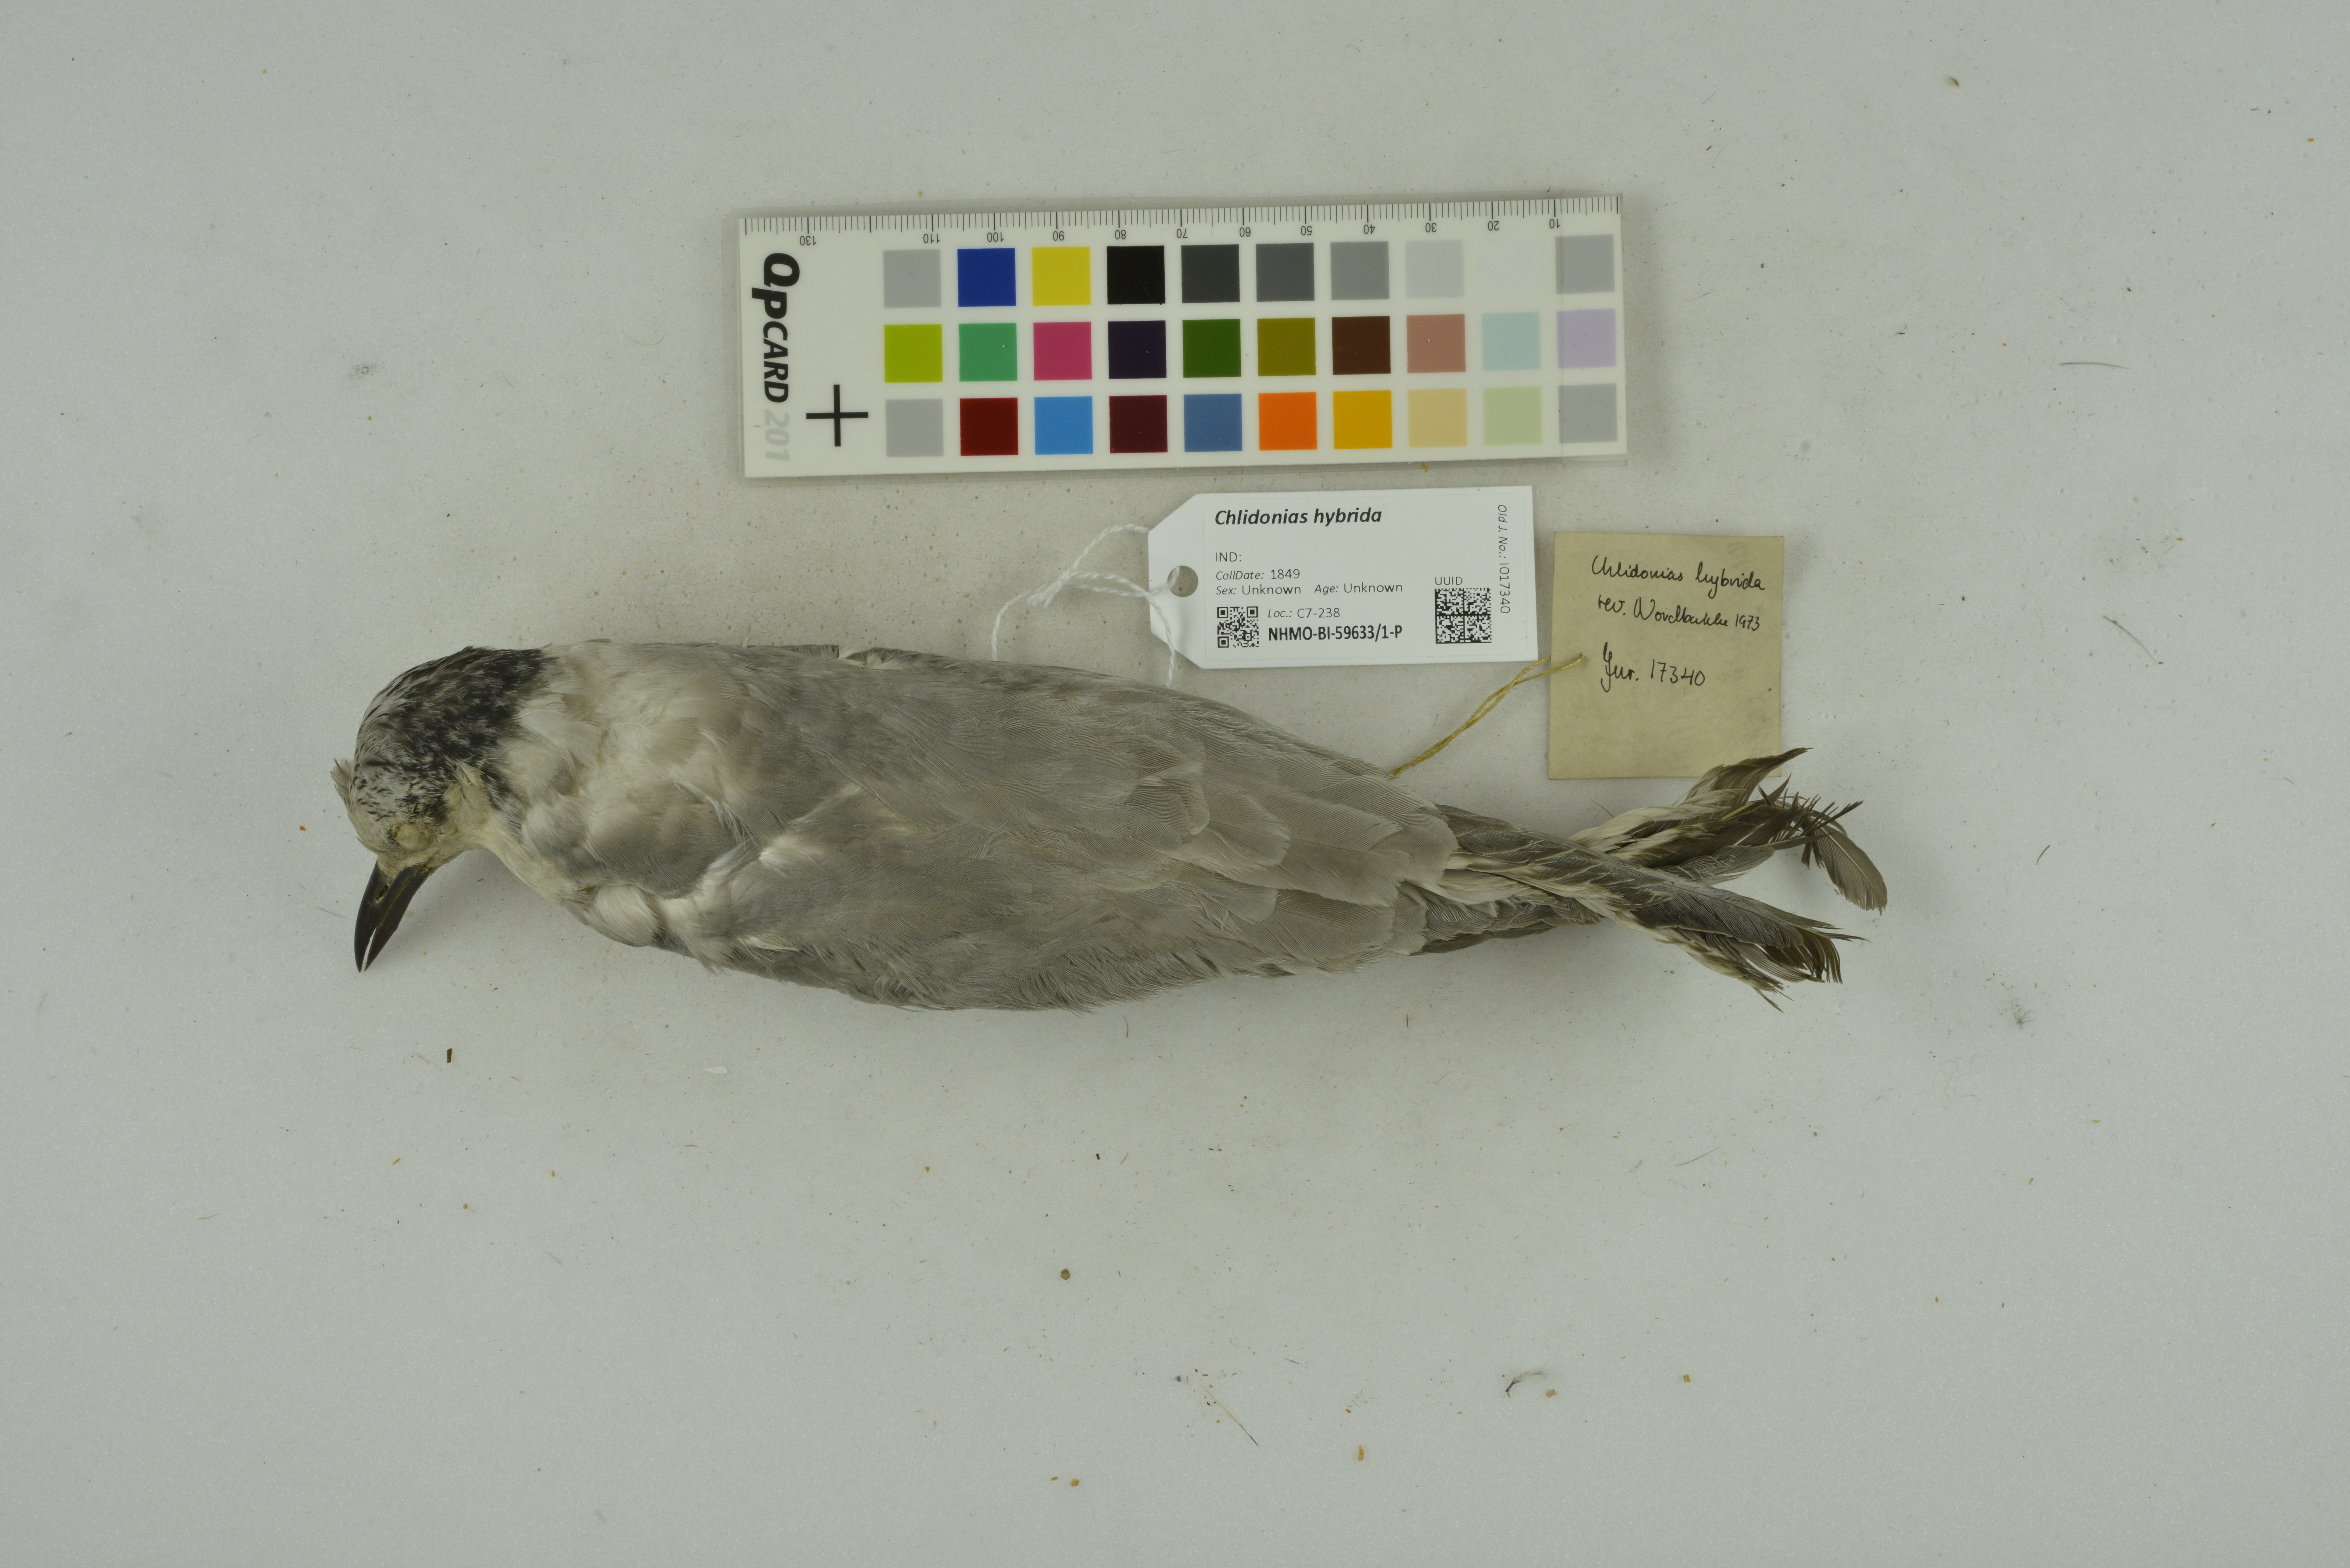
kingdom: Animalia
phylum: Chordata
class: Aves
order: Charadriiformes
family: Laridae
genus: Chlidonias
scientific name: Chlidonias hybrida
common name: Whiskered tern
